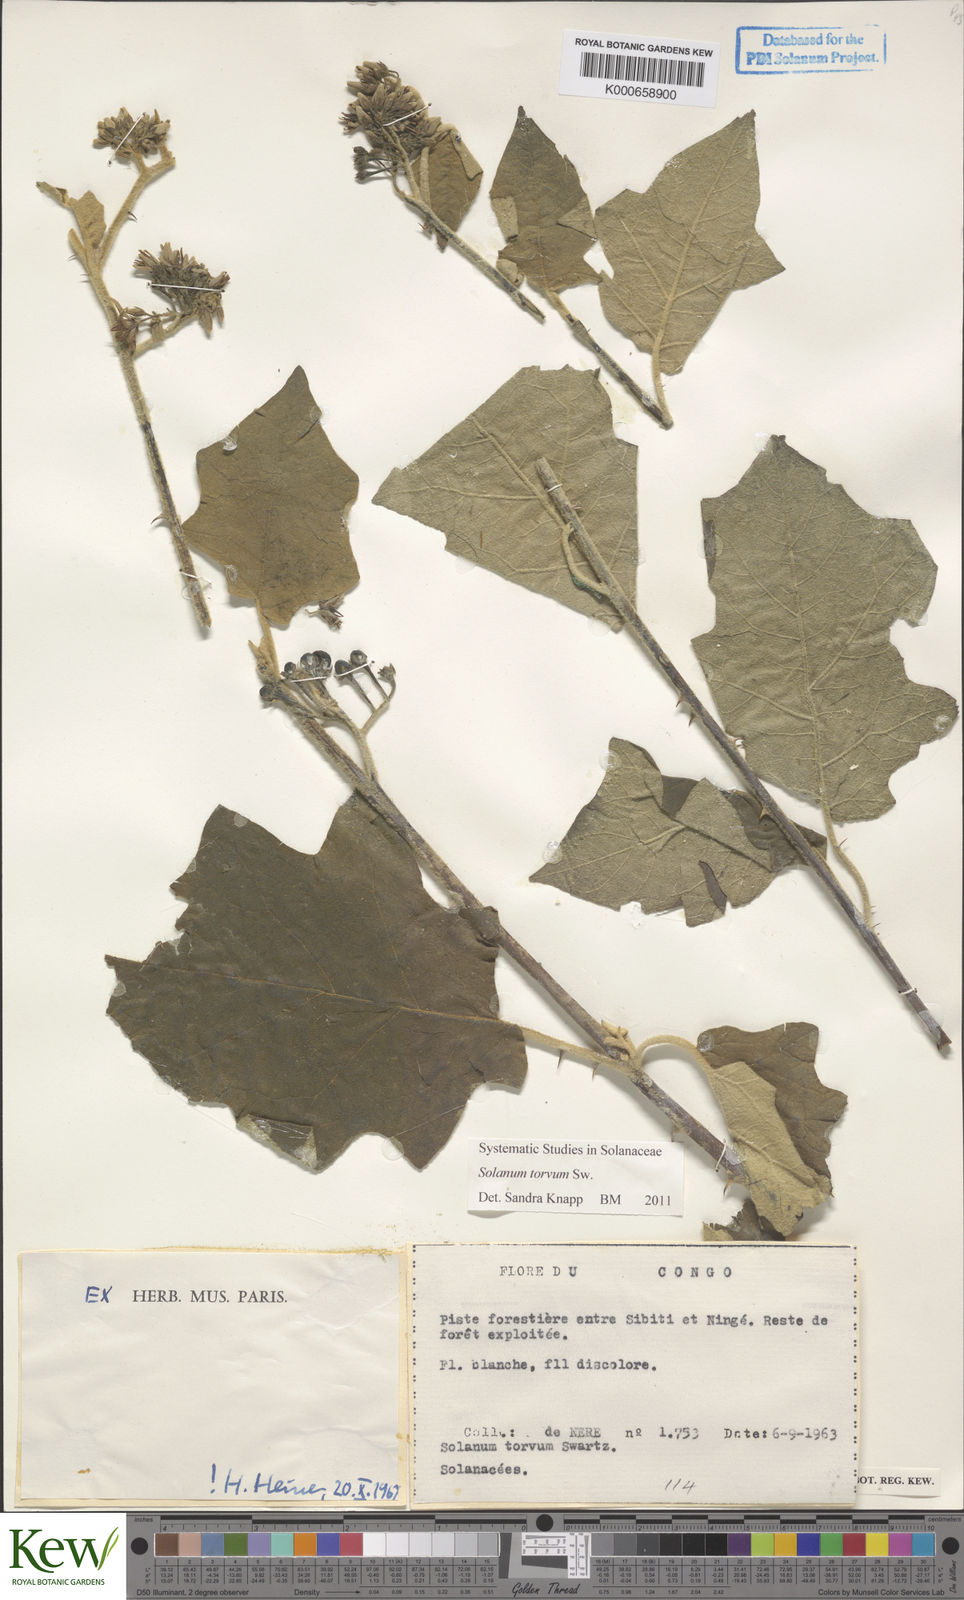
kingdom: Plantae
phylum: Tracheophyta
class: Magnoliopsida
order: Solanales
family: Solanaceae
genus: Solanum
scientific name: Solanum torvum
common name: Turkey berry
